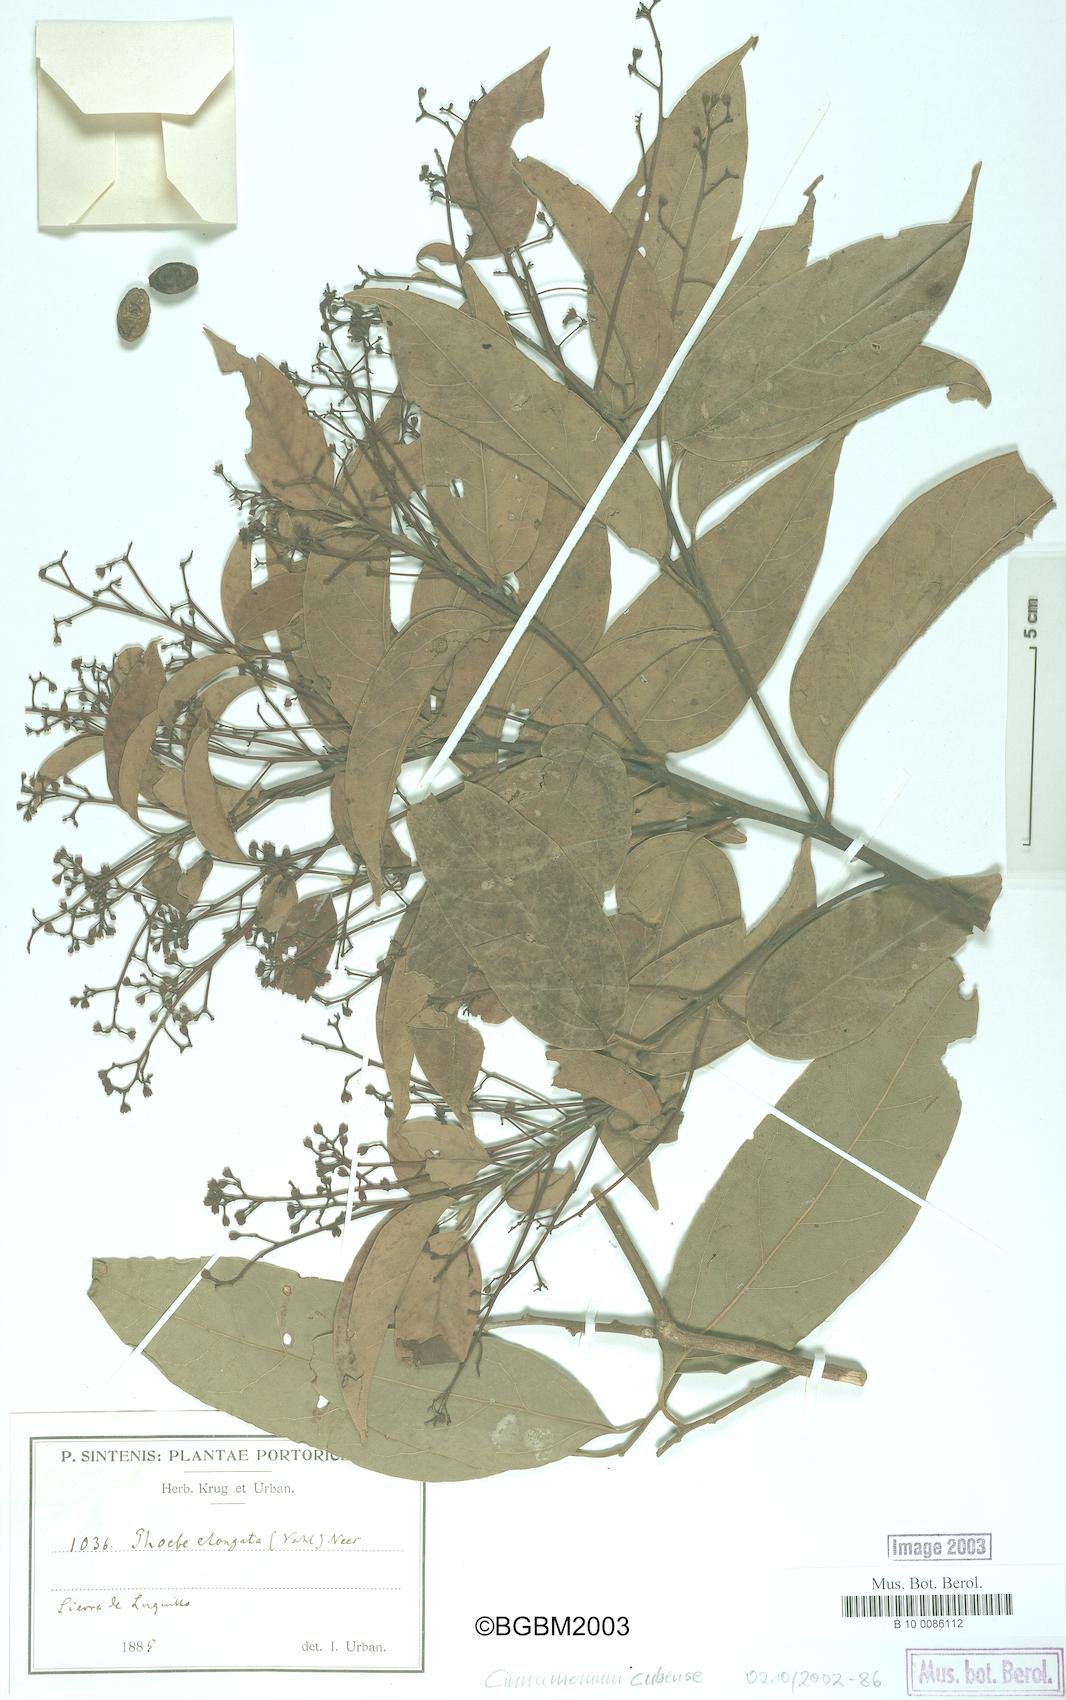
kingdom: Plantae
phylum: Tracheophyta
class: Magnoliopsida
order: Laurales
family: Lauraceae
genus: Aiouea
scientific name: Aiouea montana
